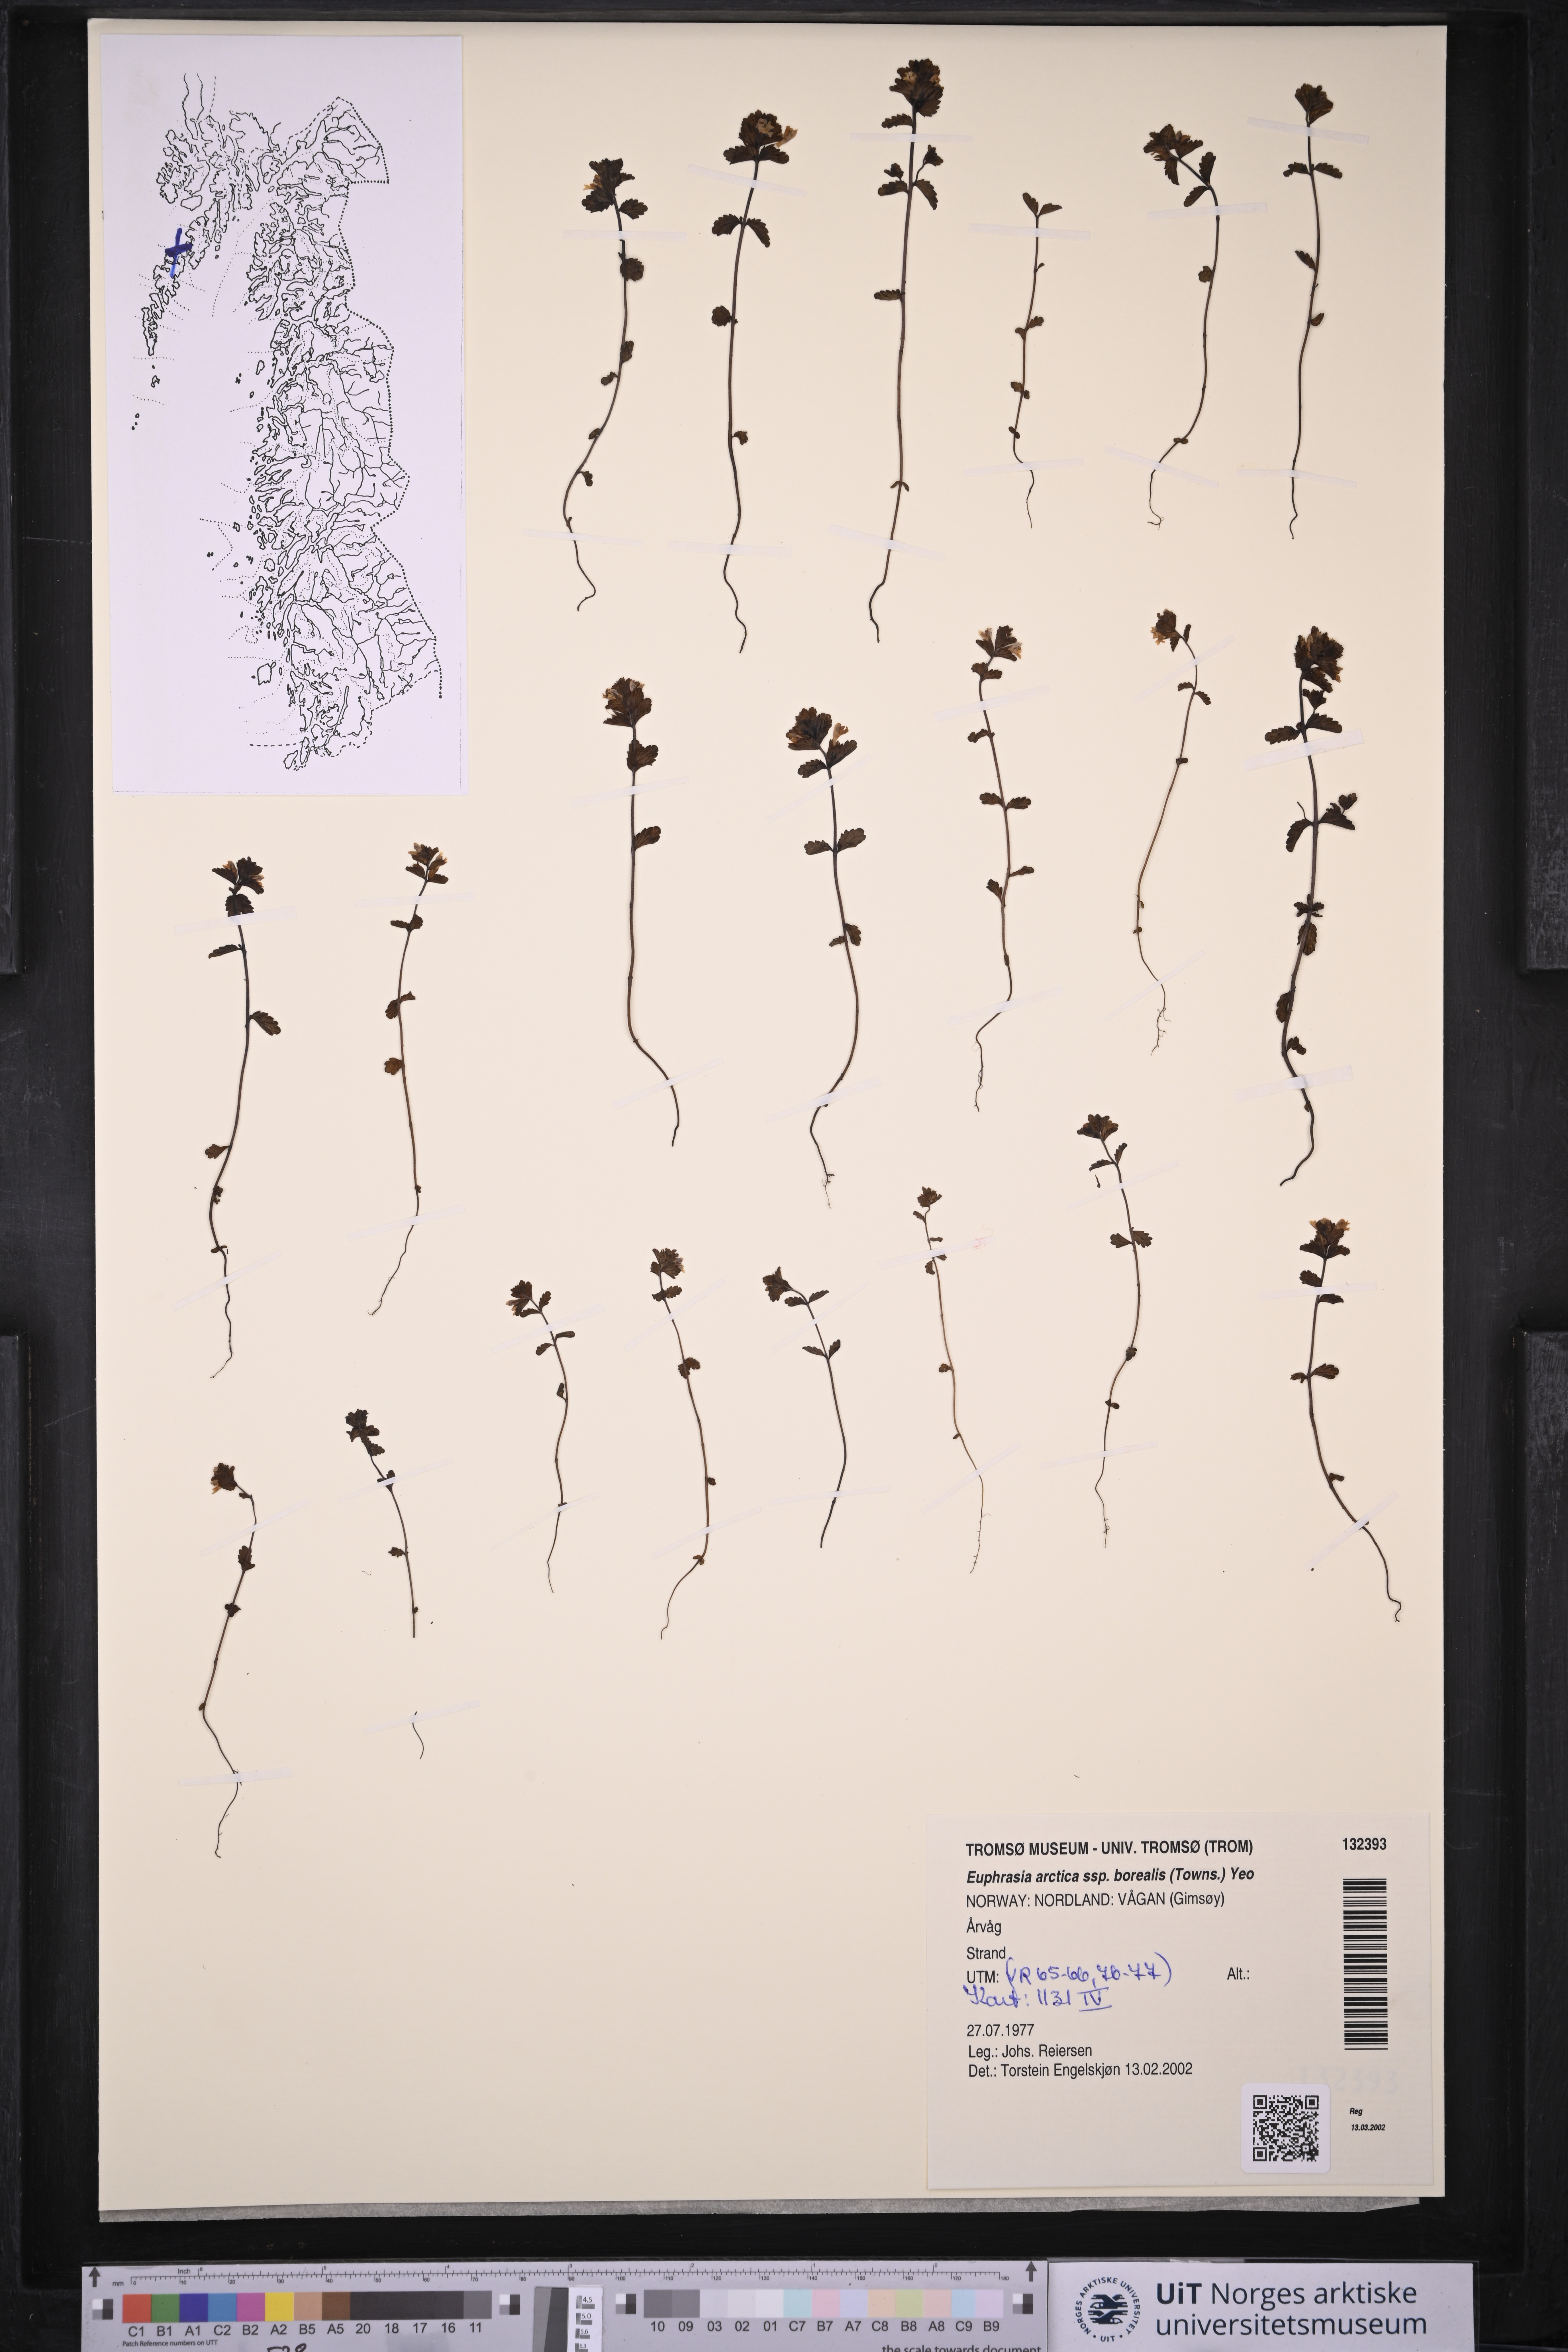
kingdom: Plantae
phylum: Tracheophyta
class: Magnoliopsida
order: Lamiales
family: Orobanchaceae
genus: Euphrasia
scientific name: Euphrasia arctica
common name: An eyebright
